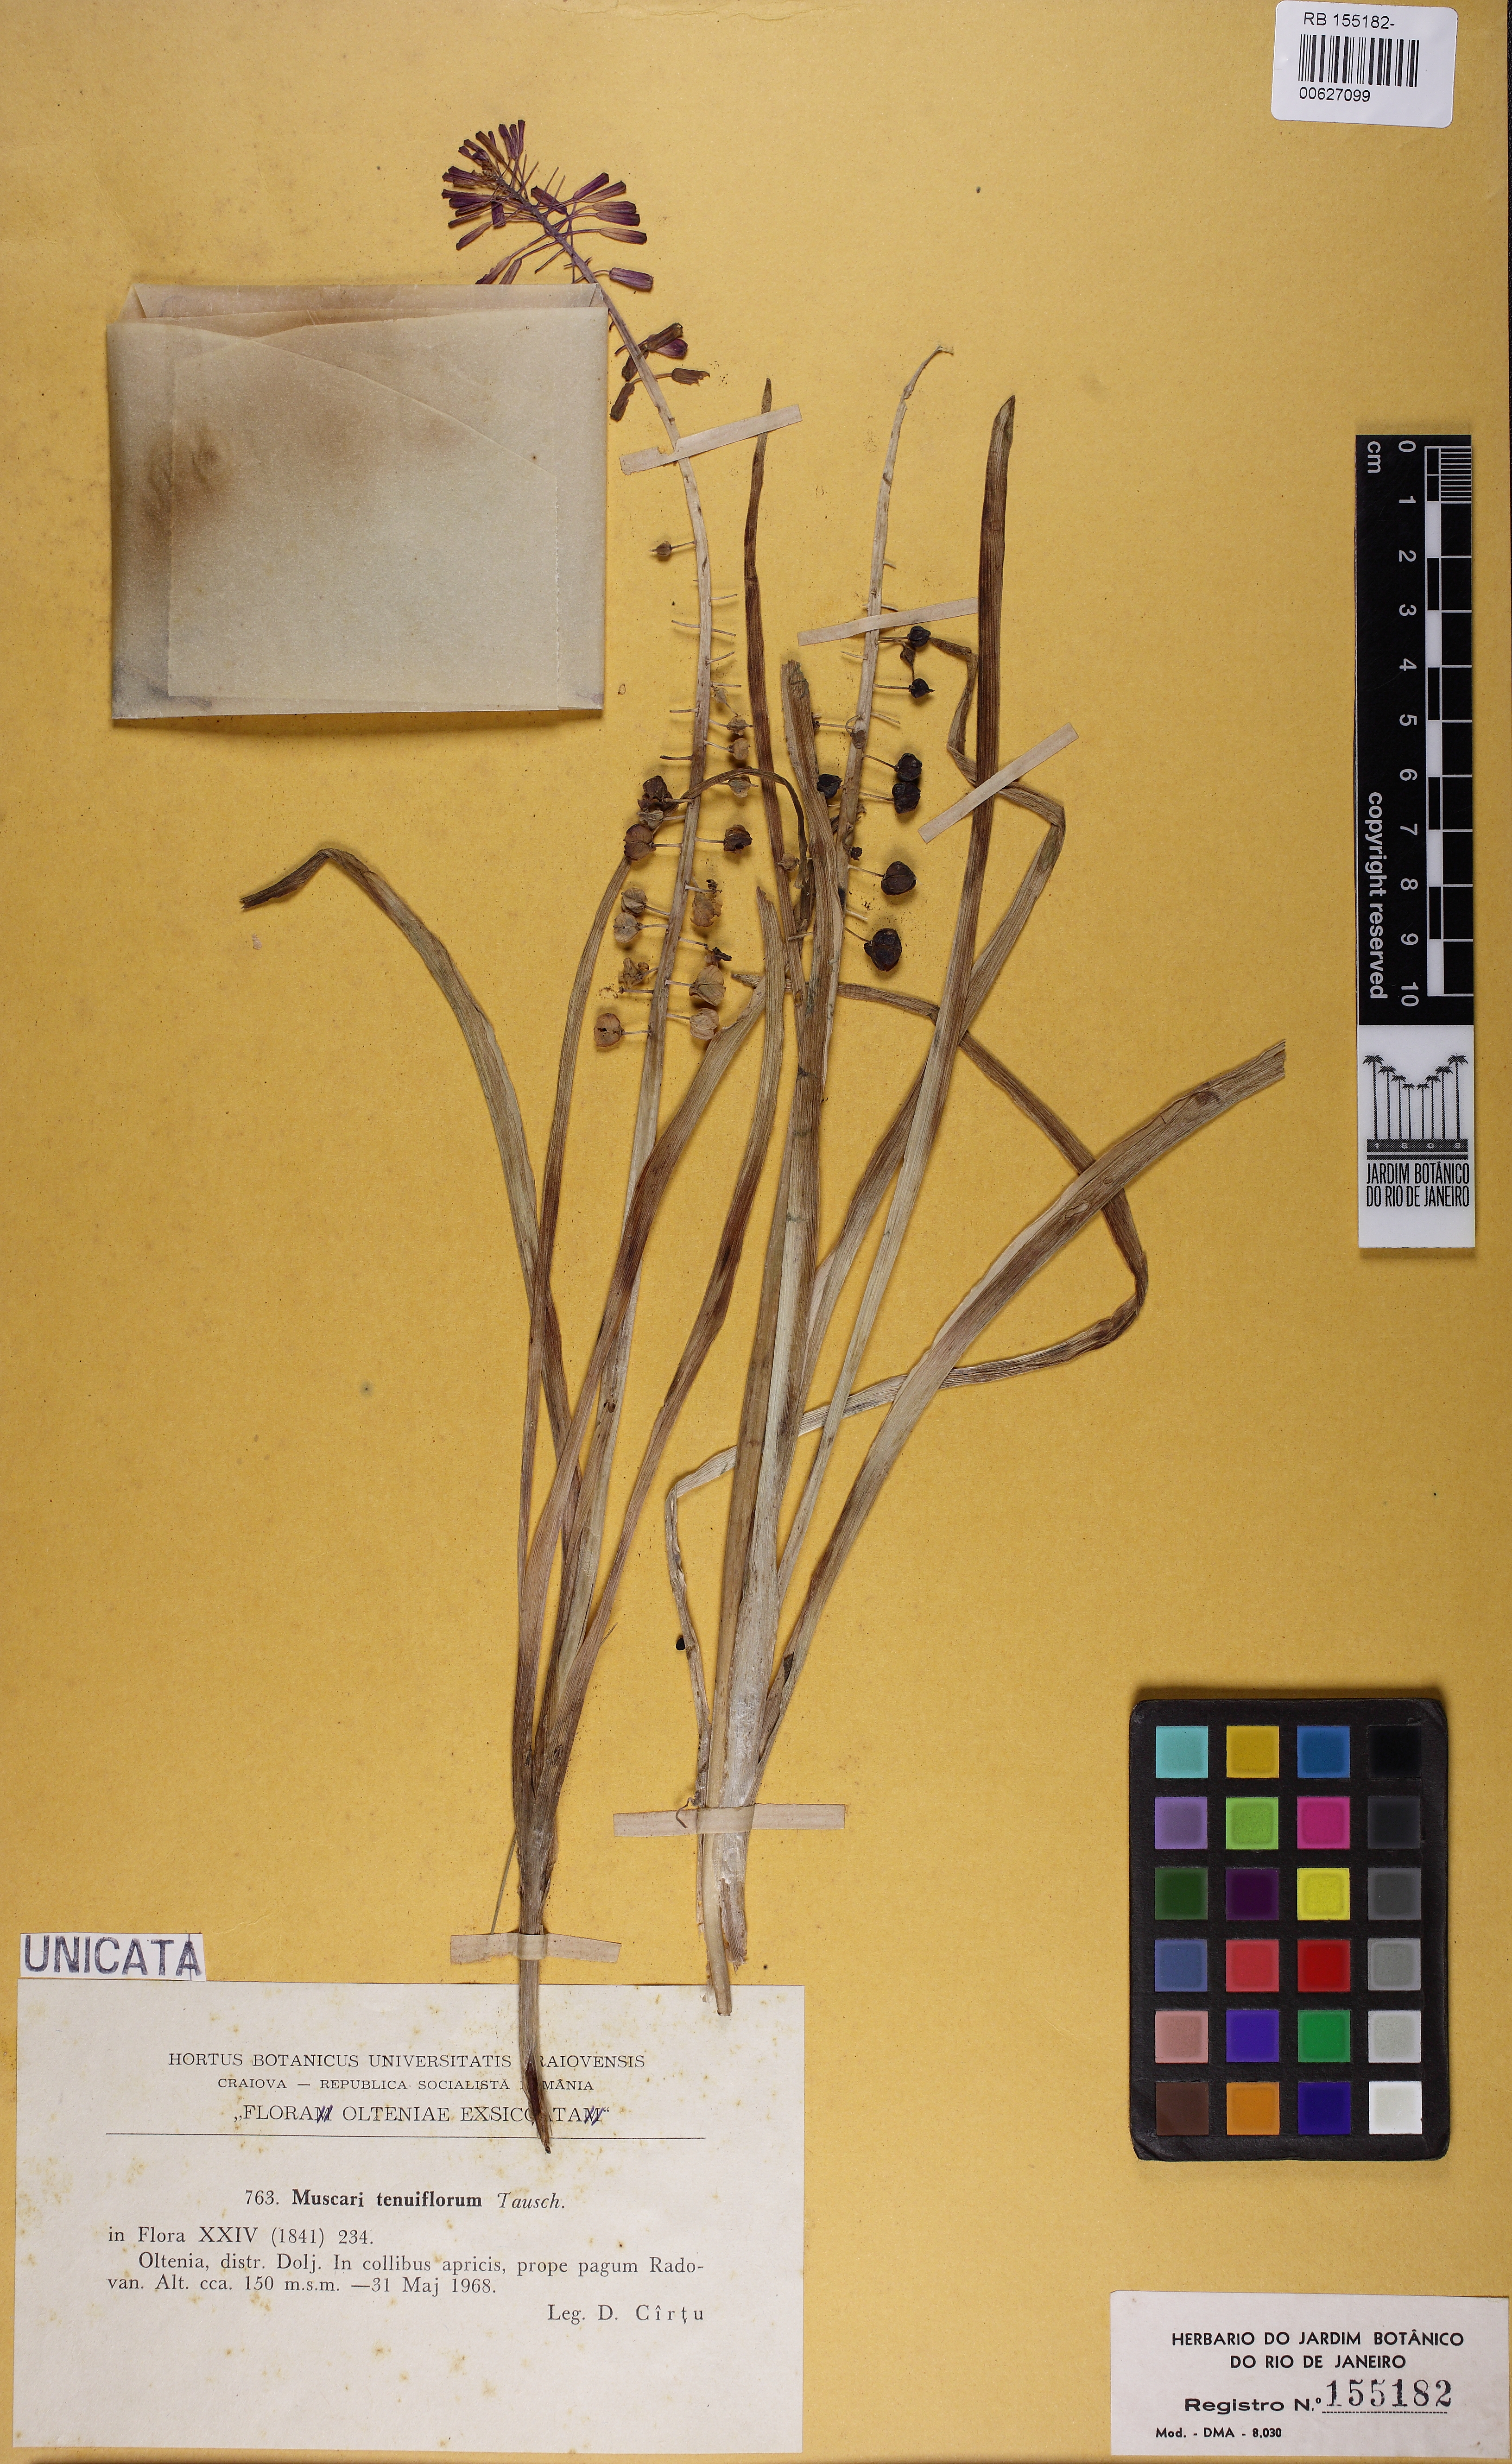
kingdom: Plantae
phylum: Tracheophyta
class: Liliopsida
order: Asparagales
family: Asparagaceae
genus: Muscari
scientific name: Muscari tenuiflorum
